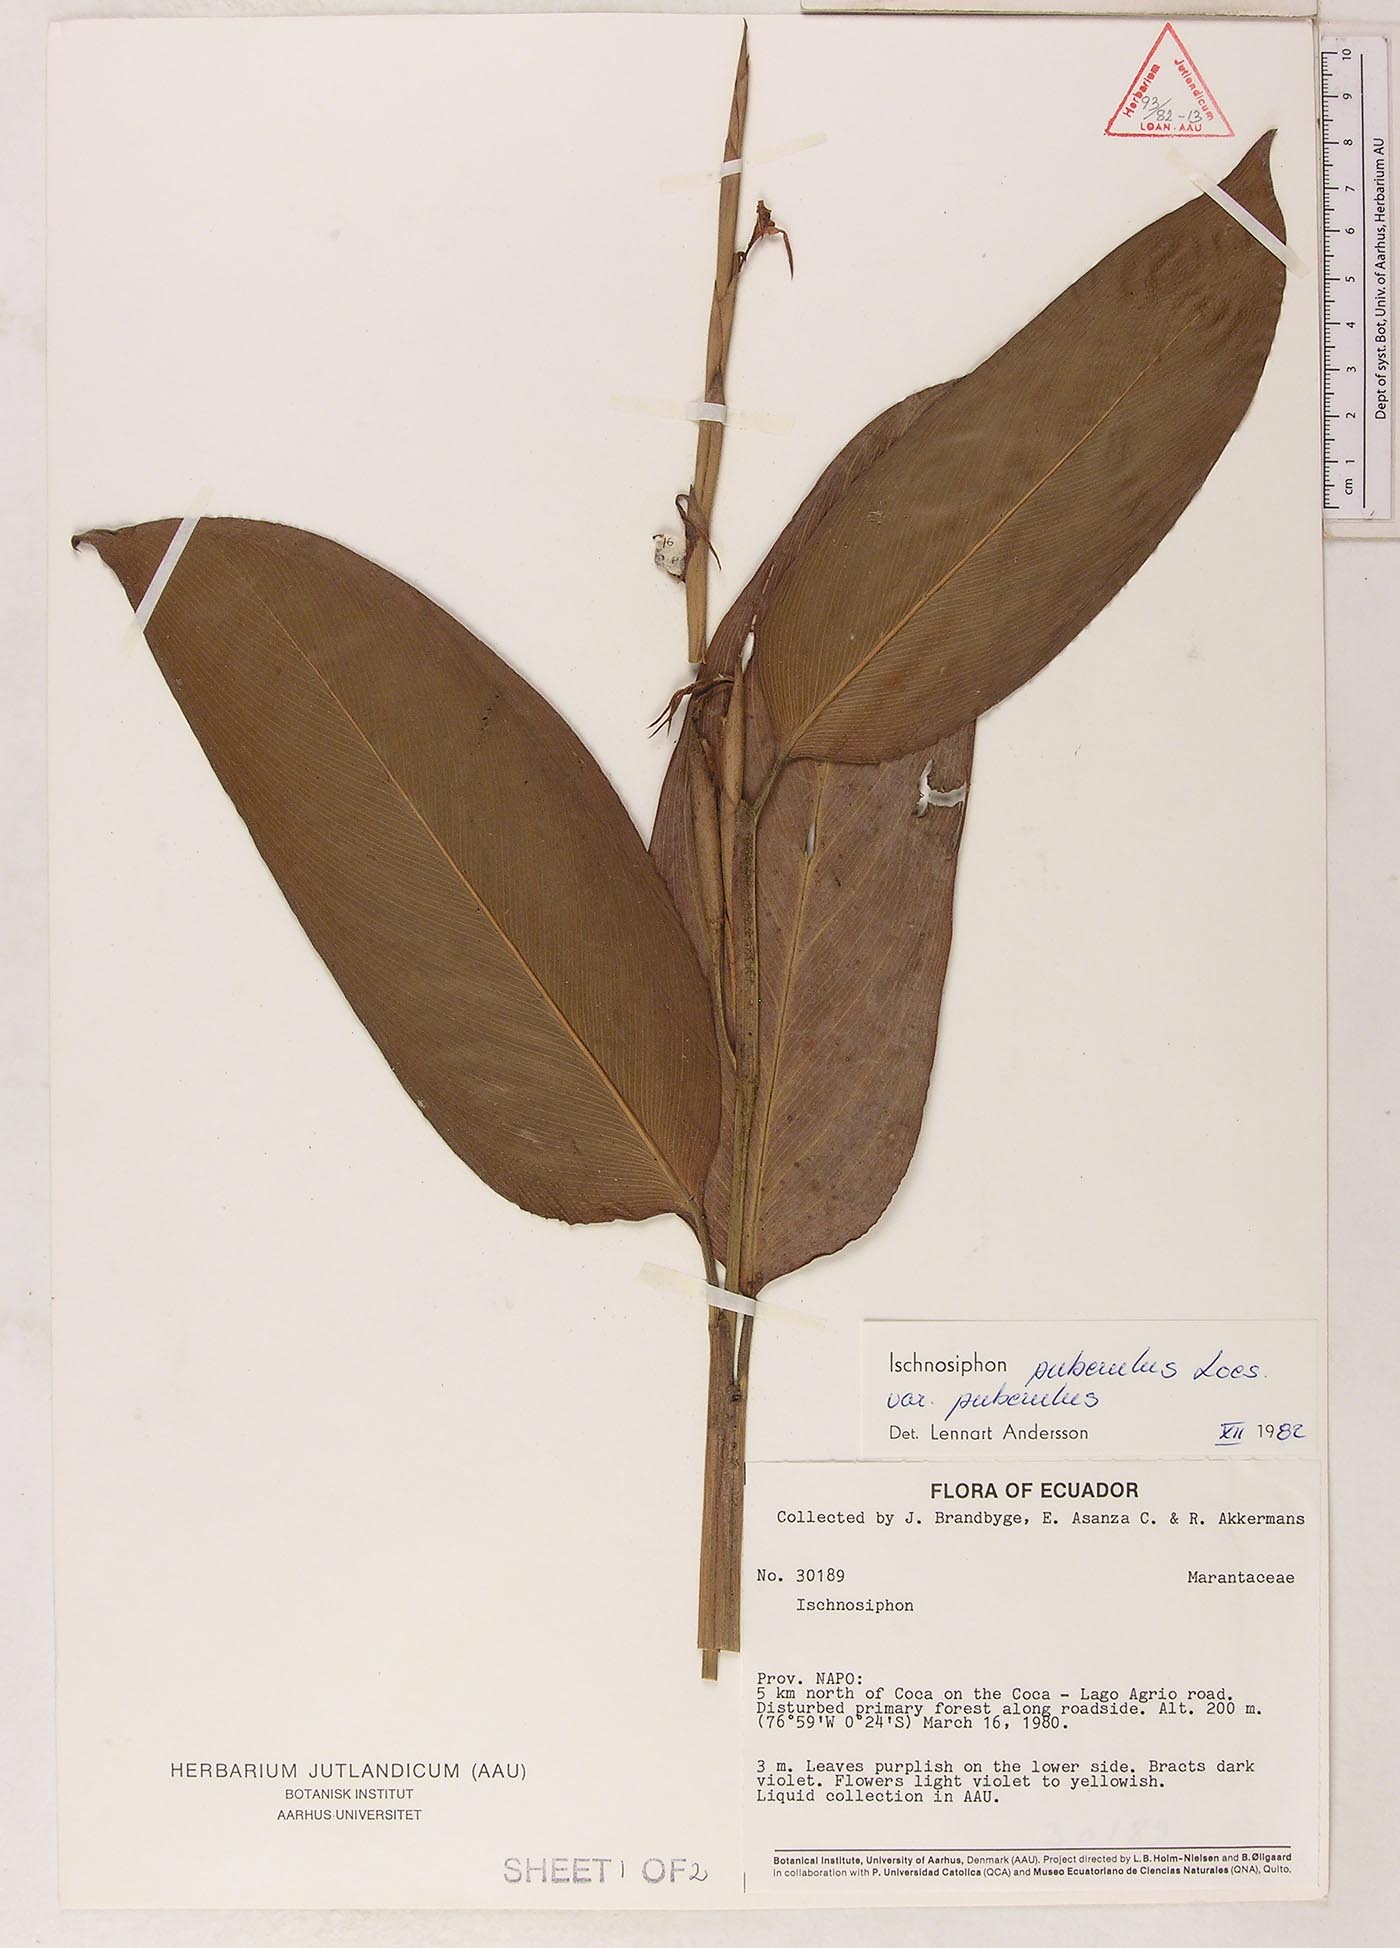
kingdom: Plantae
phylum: Tracheophyta
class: Liliopsida
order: Zingiberales
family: Marantaceae
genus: Ischnosiphon
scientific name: Ischnosiphon puberulus
